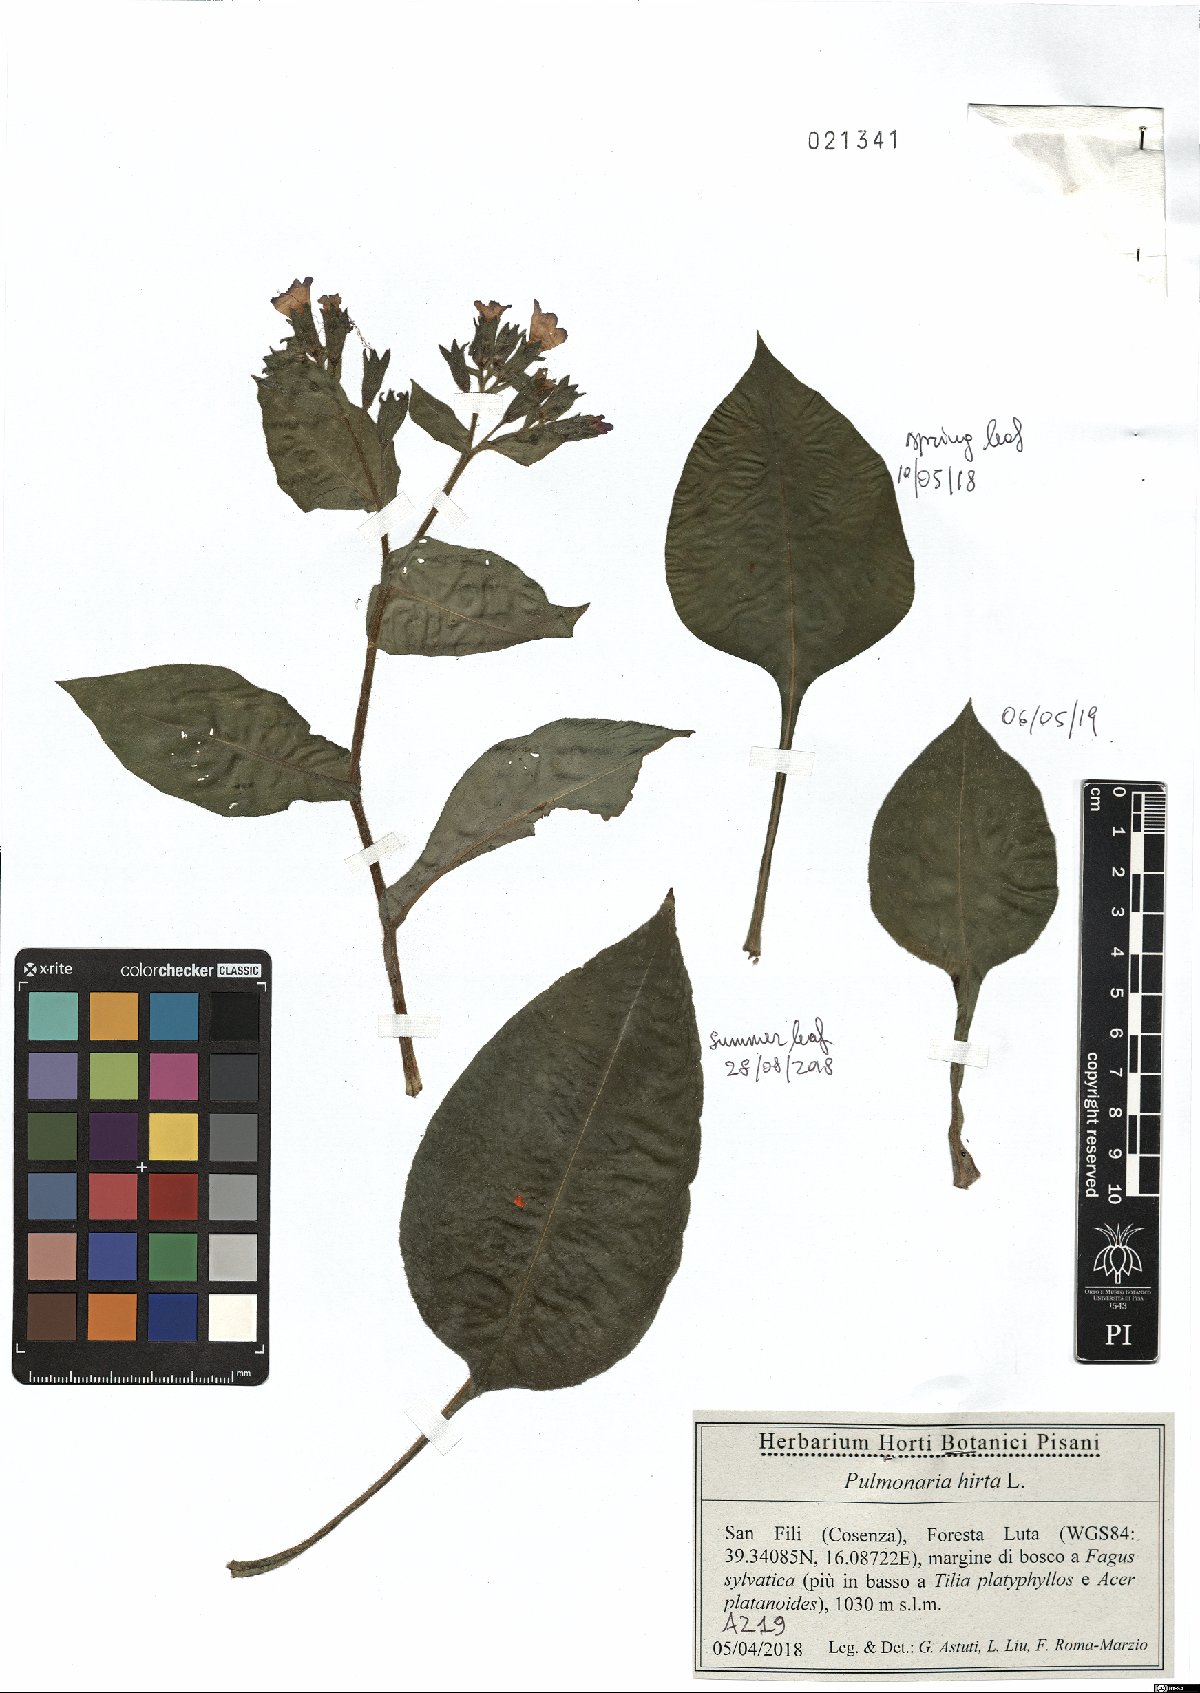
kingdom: Plantae
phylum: Tracheophyta
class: Magnoliopsida
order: Boraginales
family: Boraginaceae
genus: Pulmonaria
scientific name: Pulmonaria hirta
